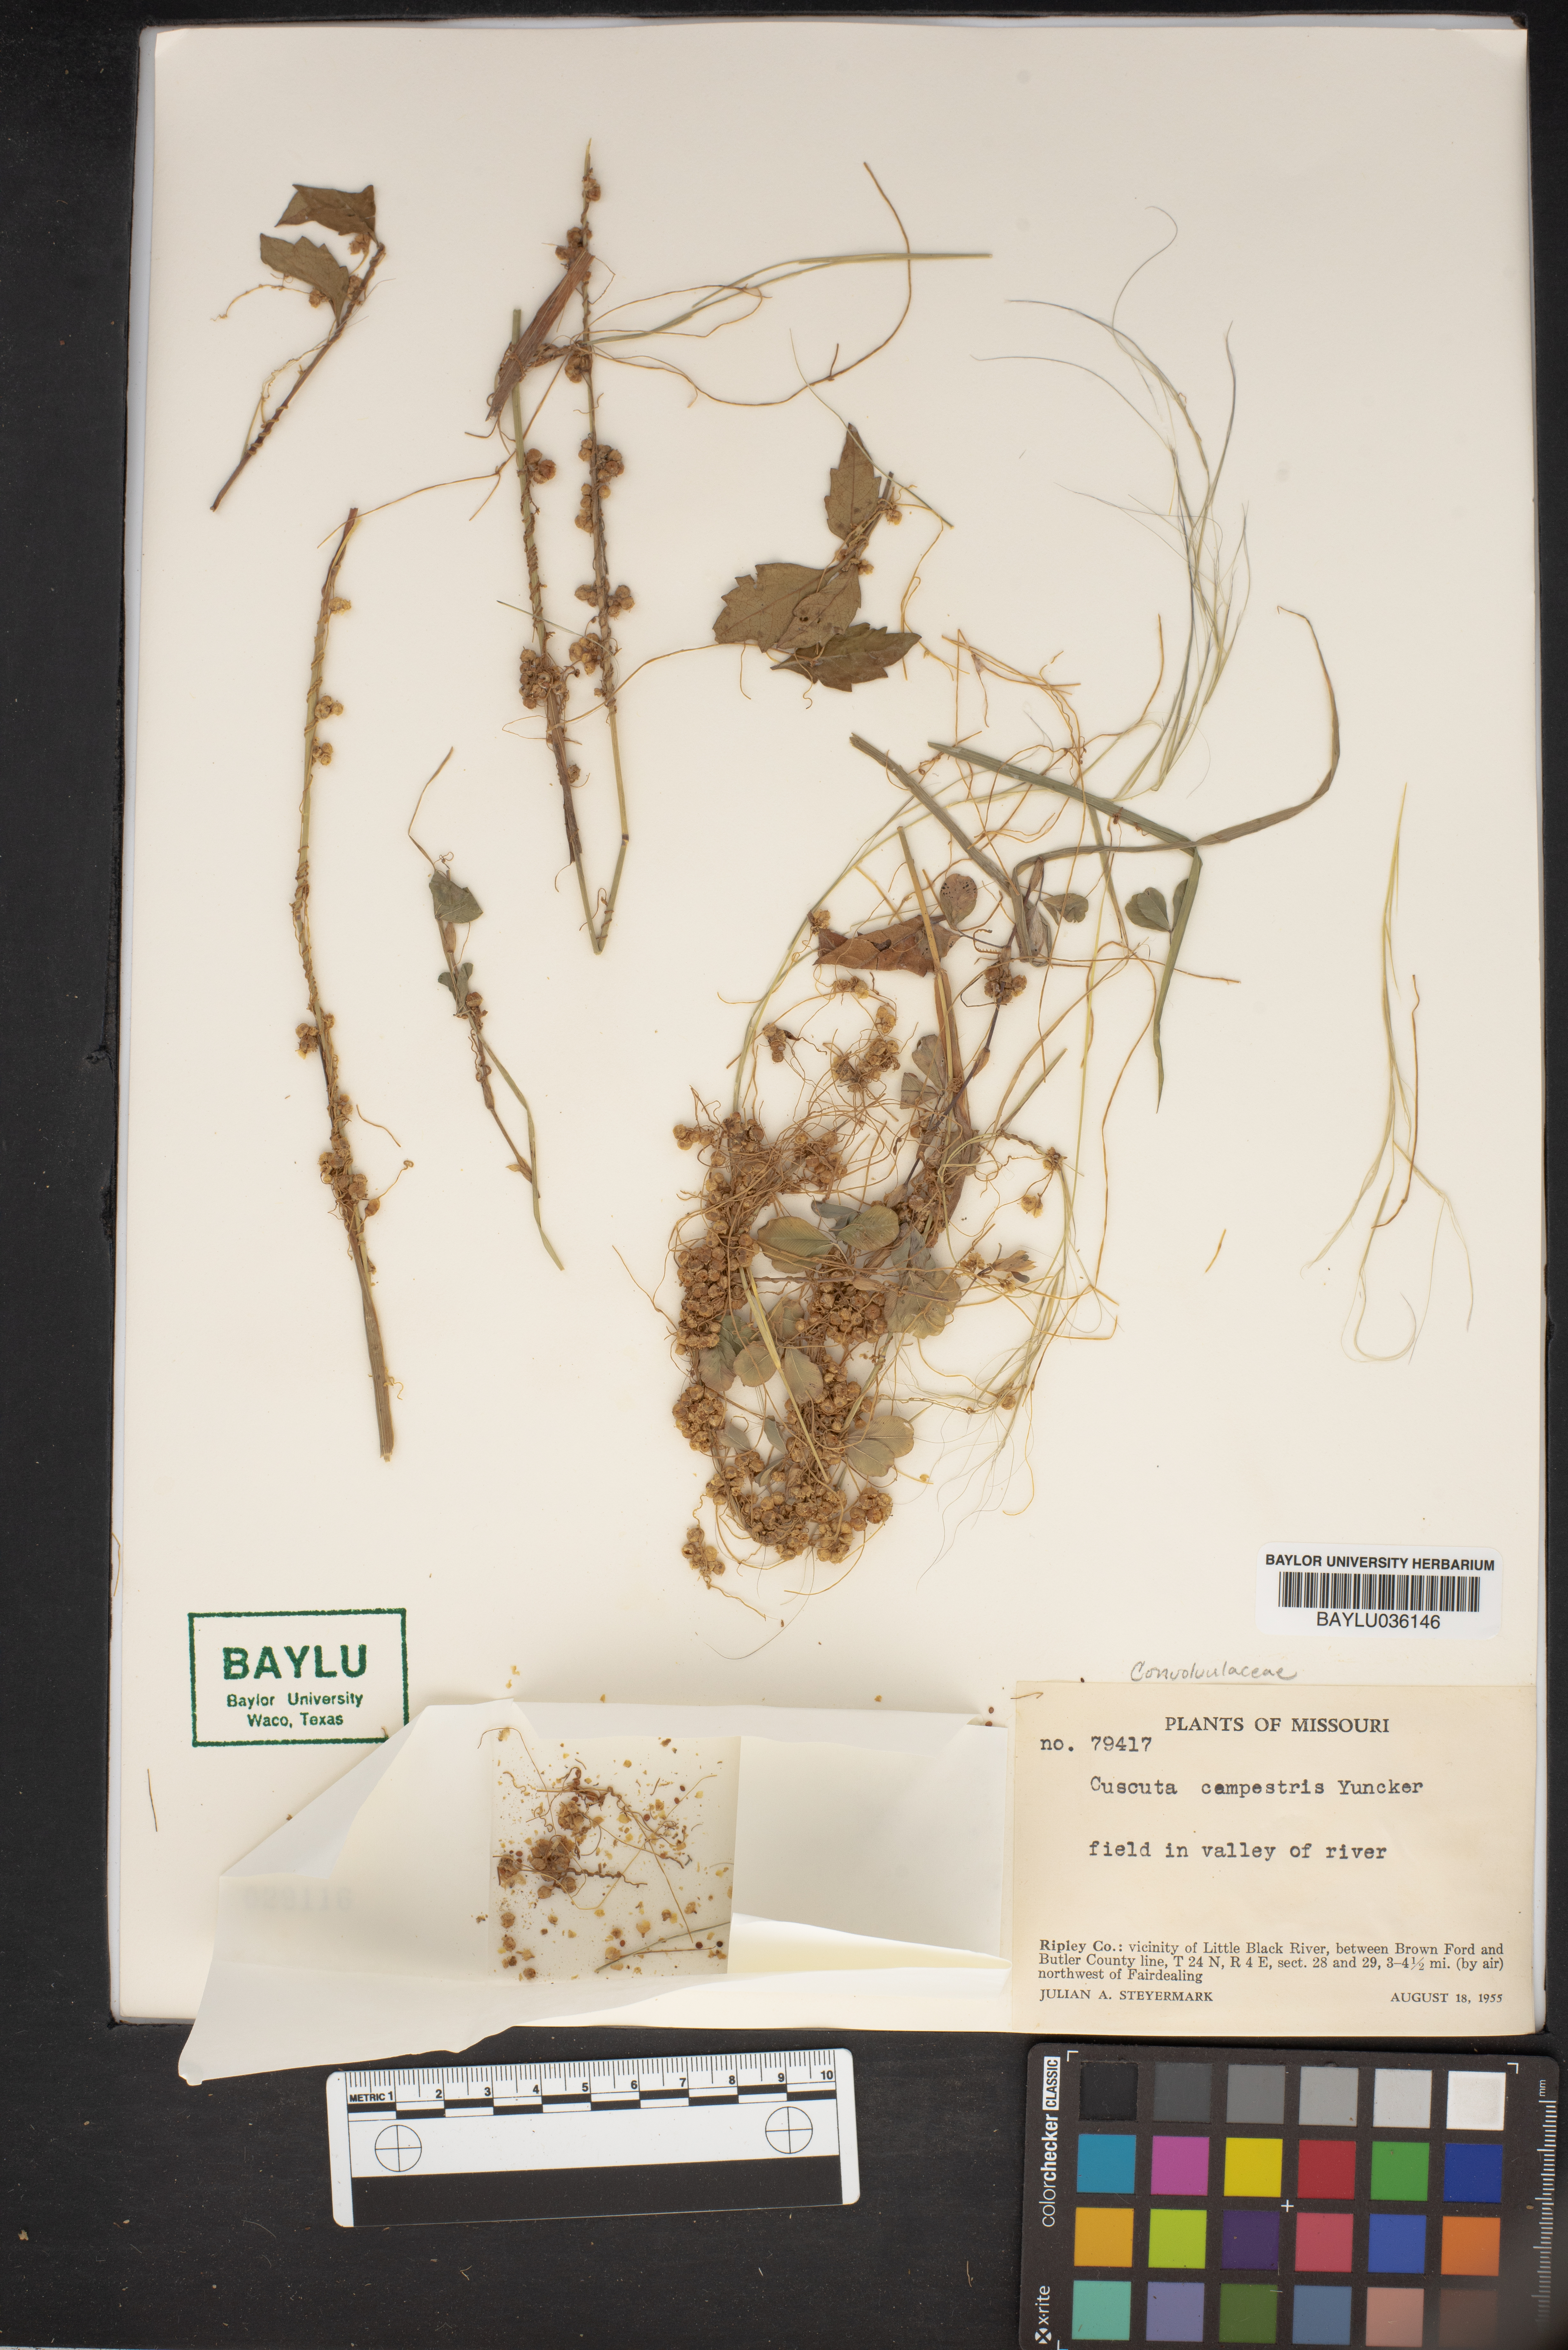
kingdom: Plantae
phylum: Tracheophyta
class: Magnoliopsida
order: Solanales
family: Convolvulaceae
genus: Cuscuta
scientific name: Cuscuta campestris
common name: Yellow dodder
